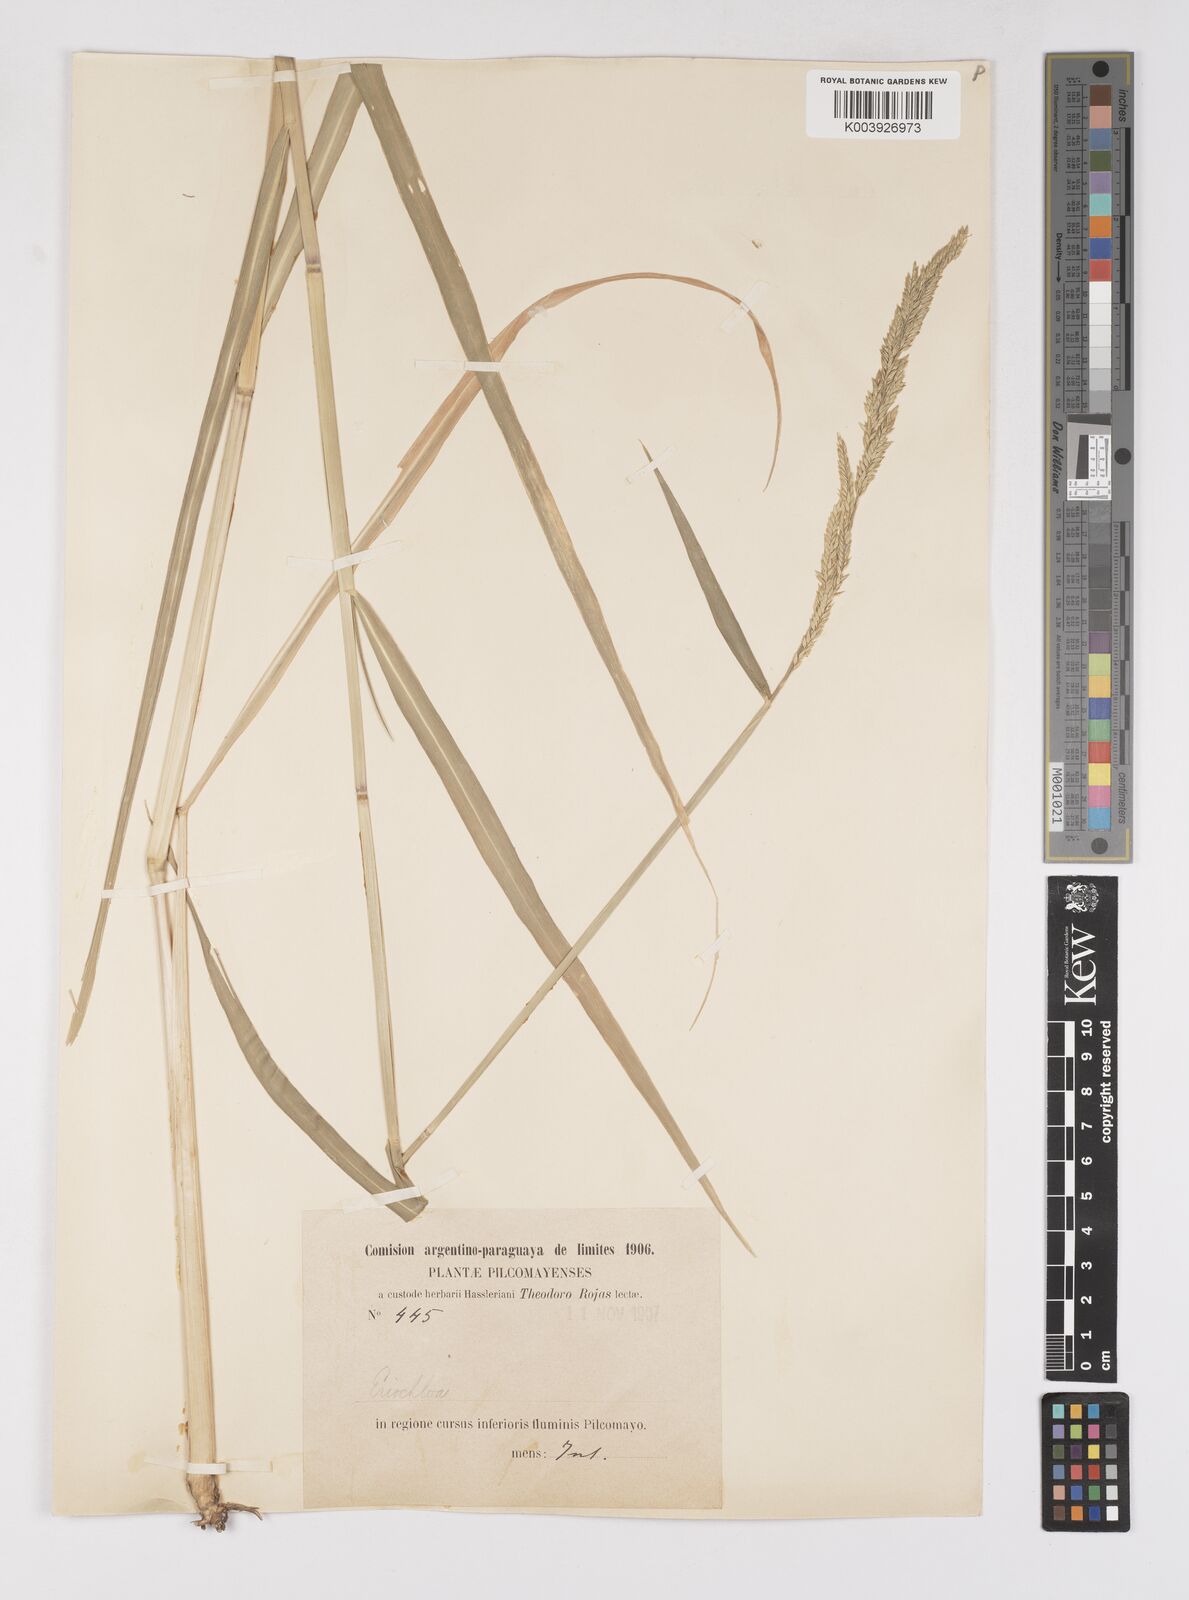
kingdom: Plantae
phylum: Tracheophyta
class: Liliopsida
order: Poales
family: Poaceae
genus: Eriochloa
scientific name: Eriochloa punctata
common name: Louisiana cupgrass
